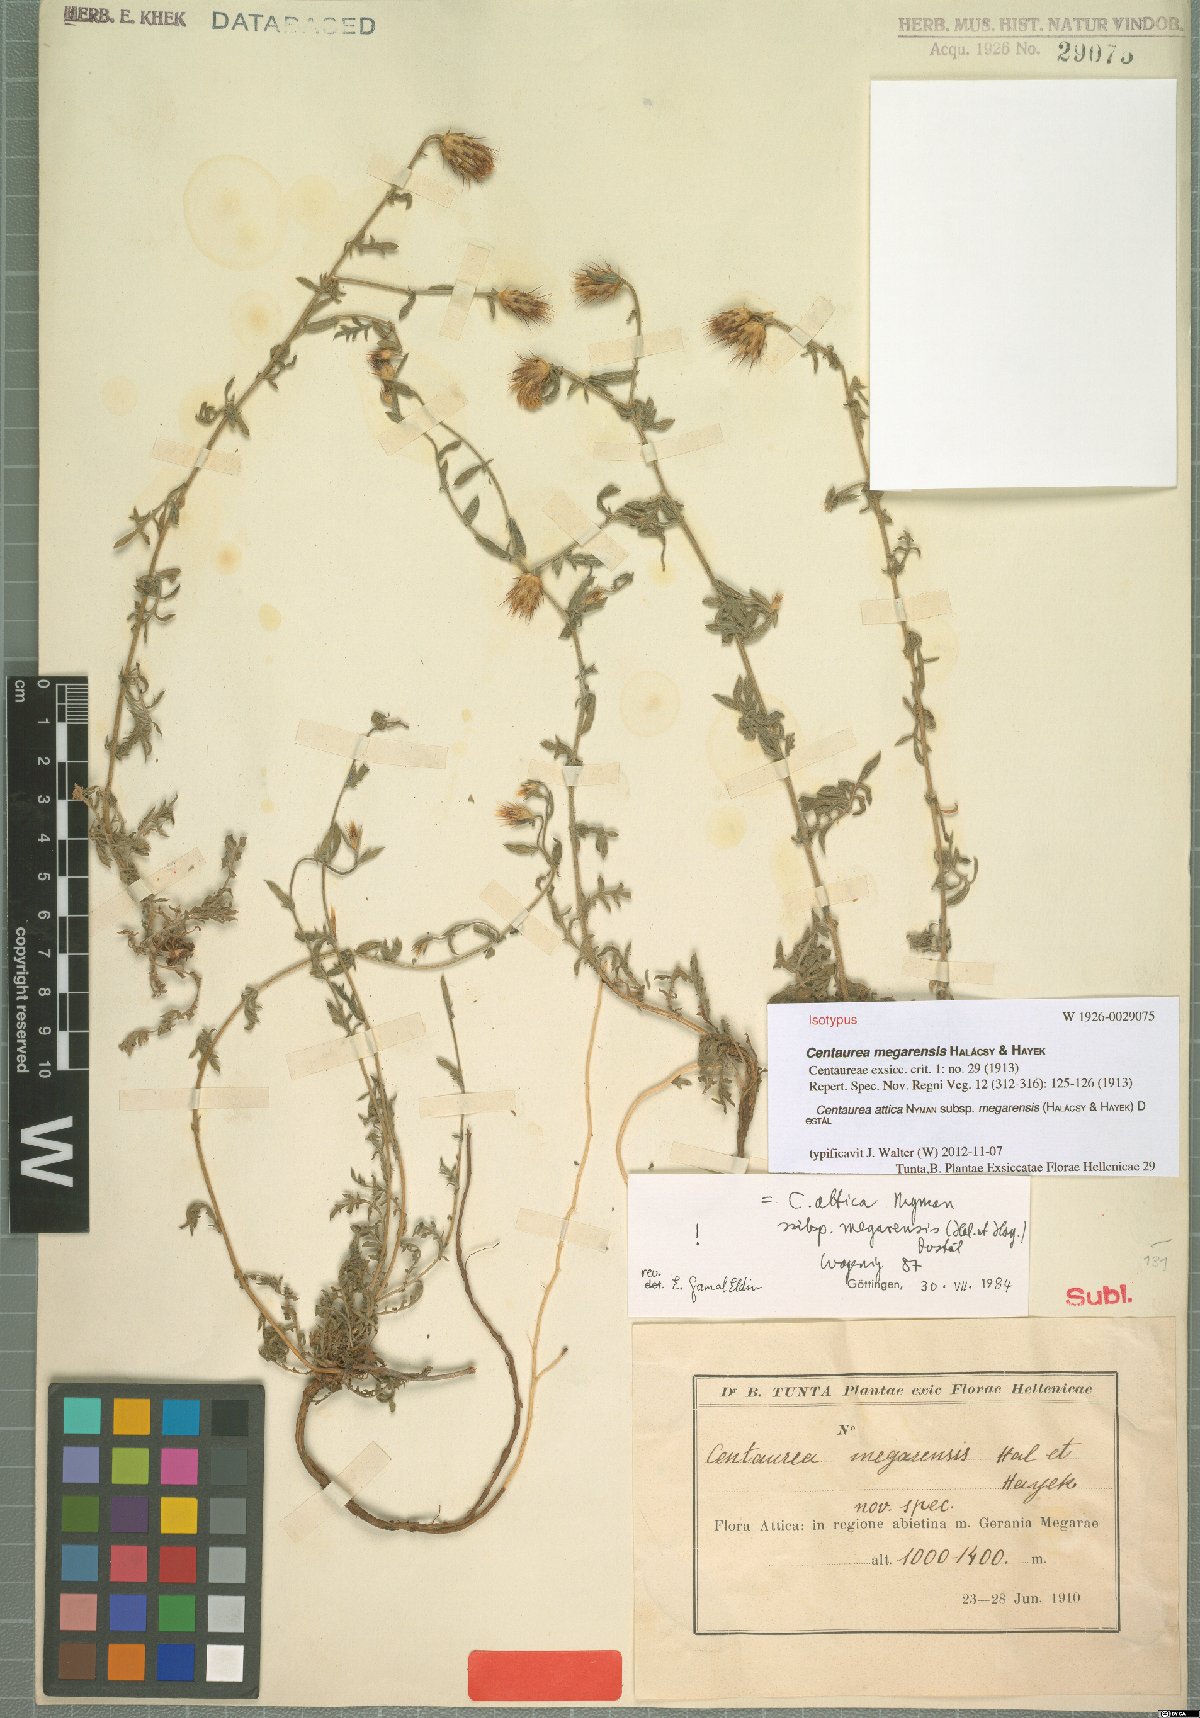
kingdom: Plantae
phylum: Tracheophyta
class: Magnoliopsida
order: Asterales
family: Asteraceae
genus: Centaurea
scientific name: Centaurea attica
